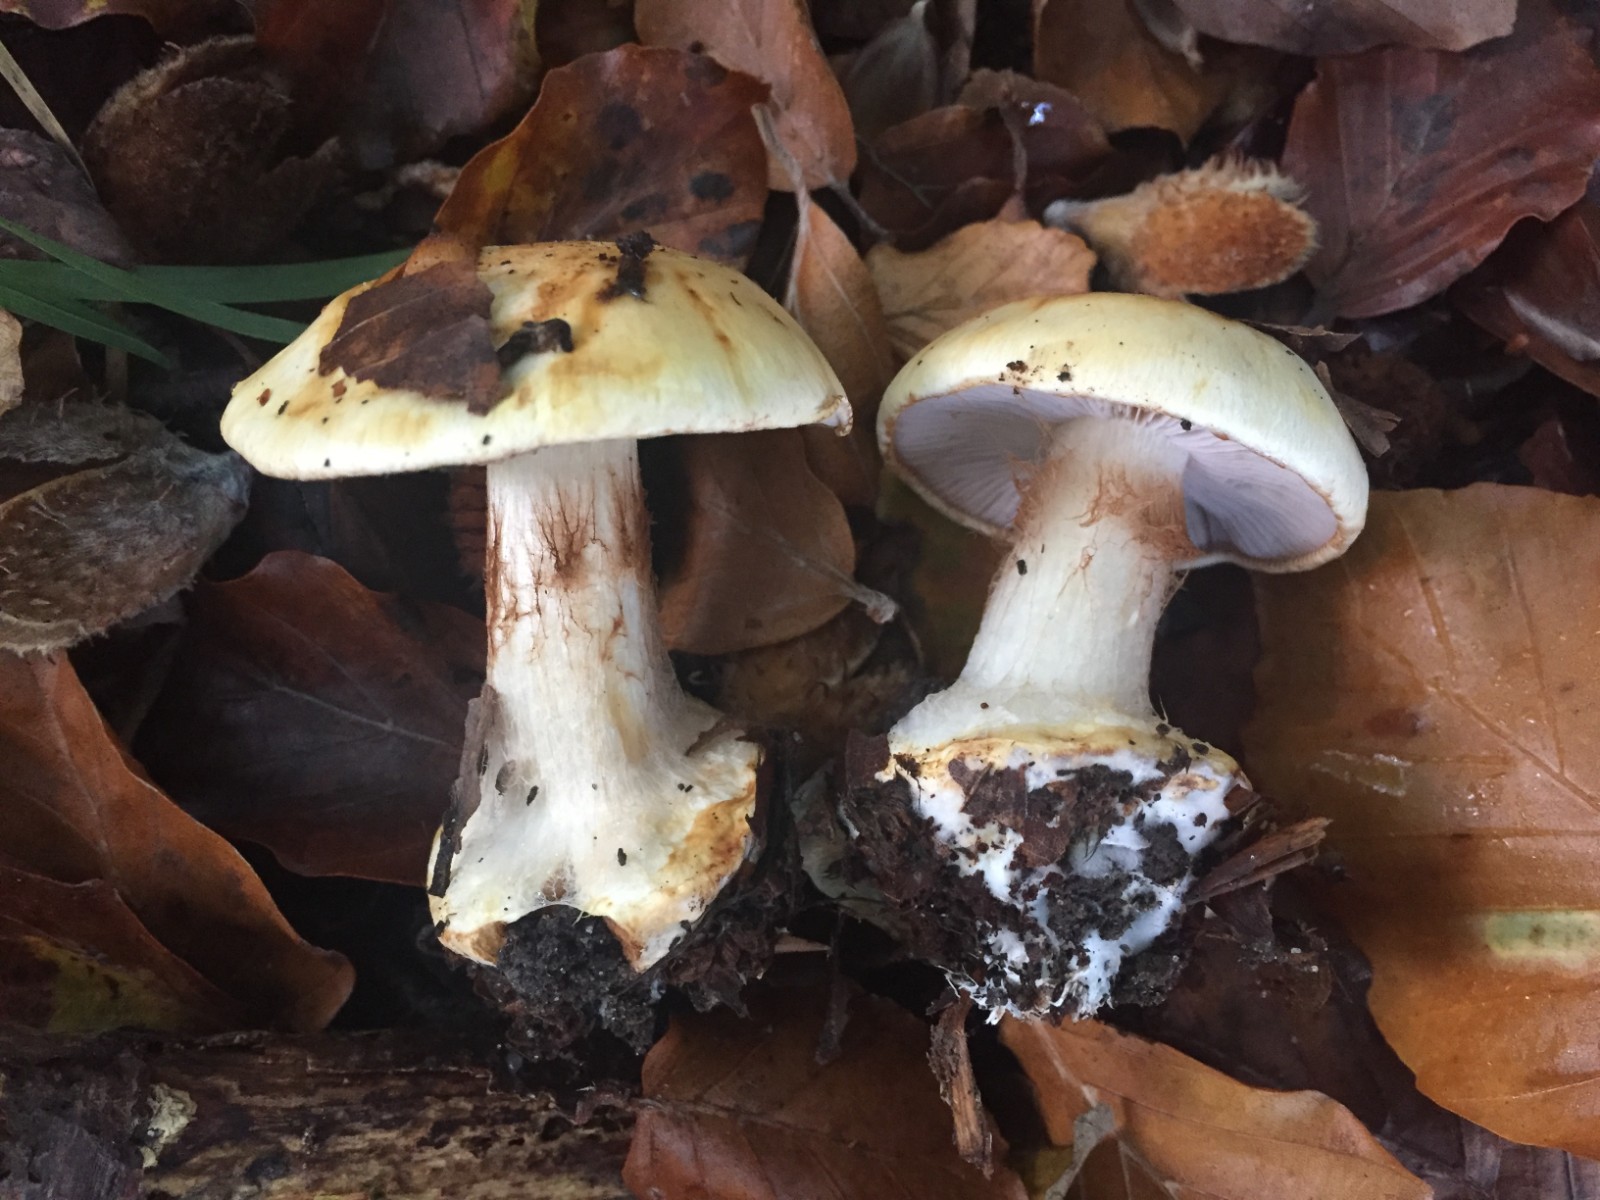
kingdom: Fungi
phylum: Basidiomycota
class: Agaricomycetes
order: Agaricales
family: Cortinariaceae
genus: Calonarius
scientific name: Calonarius albertii
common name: Alberts slørhat
